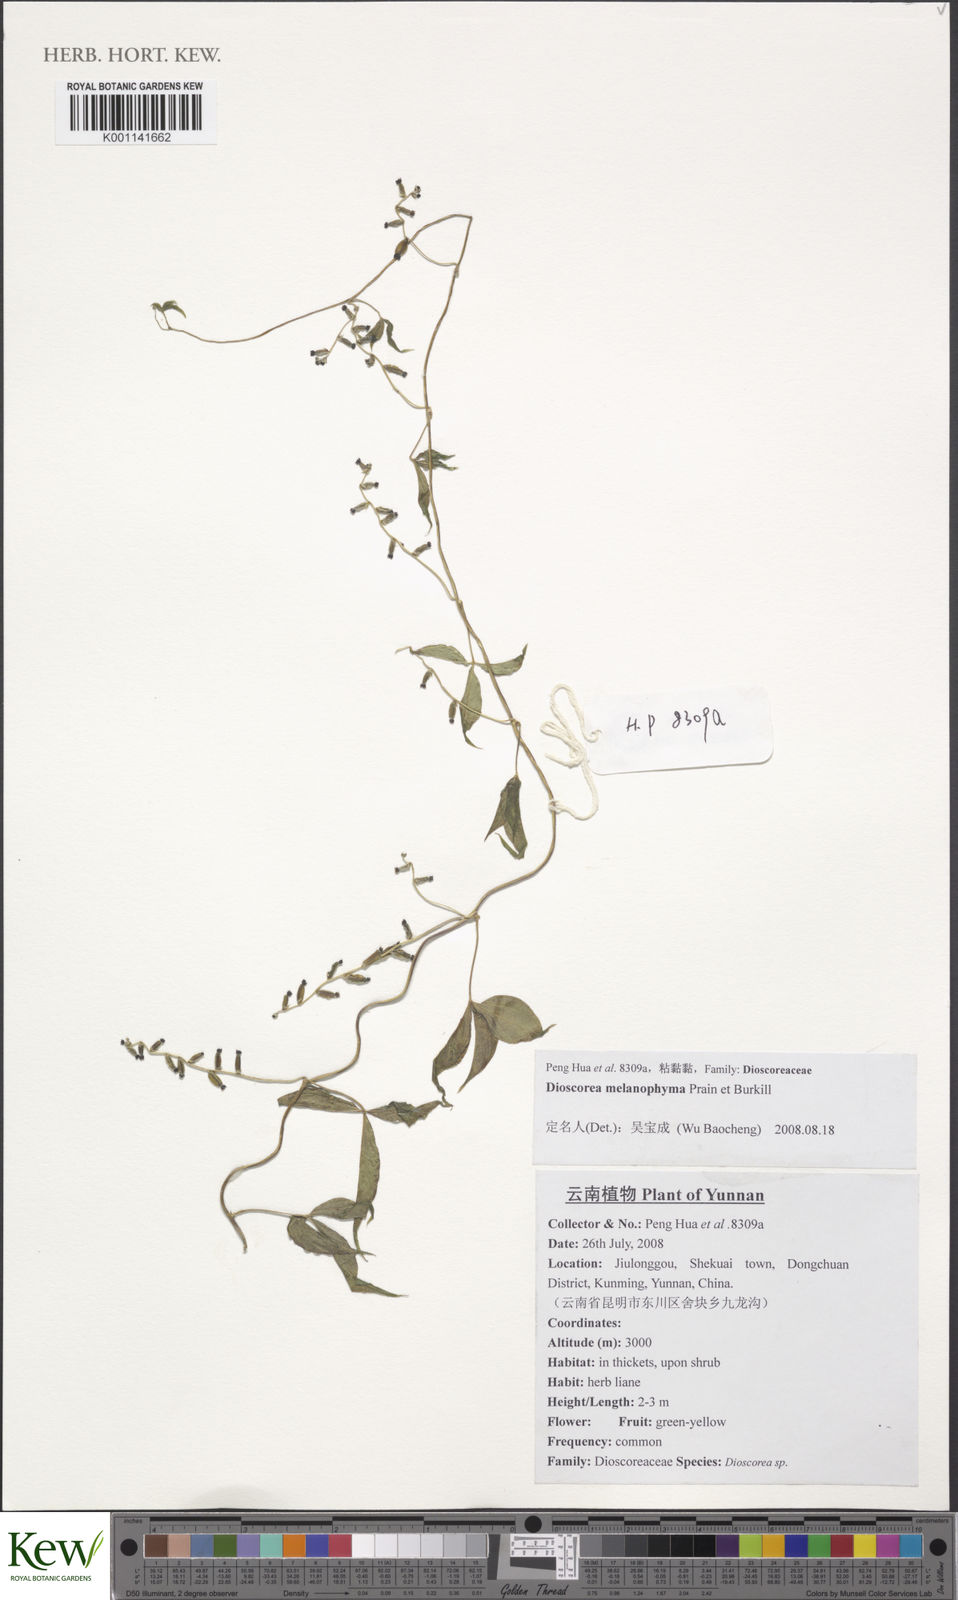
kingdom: Plantae
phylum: Tracheophyta
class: Liliopsida
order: Dioscoreales
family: Dioscoreaceae
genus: Dioscorea
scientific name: Dioscorea melanophyma
